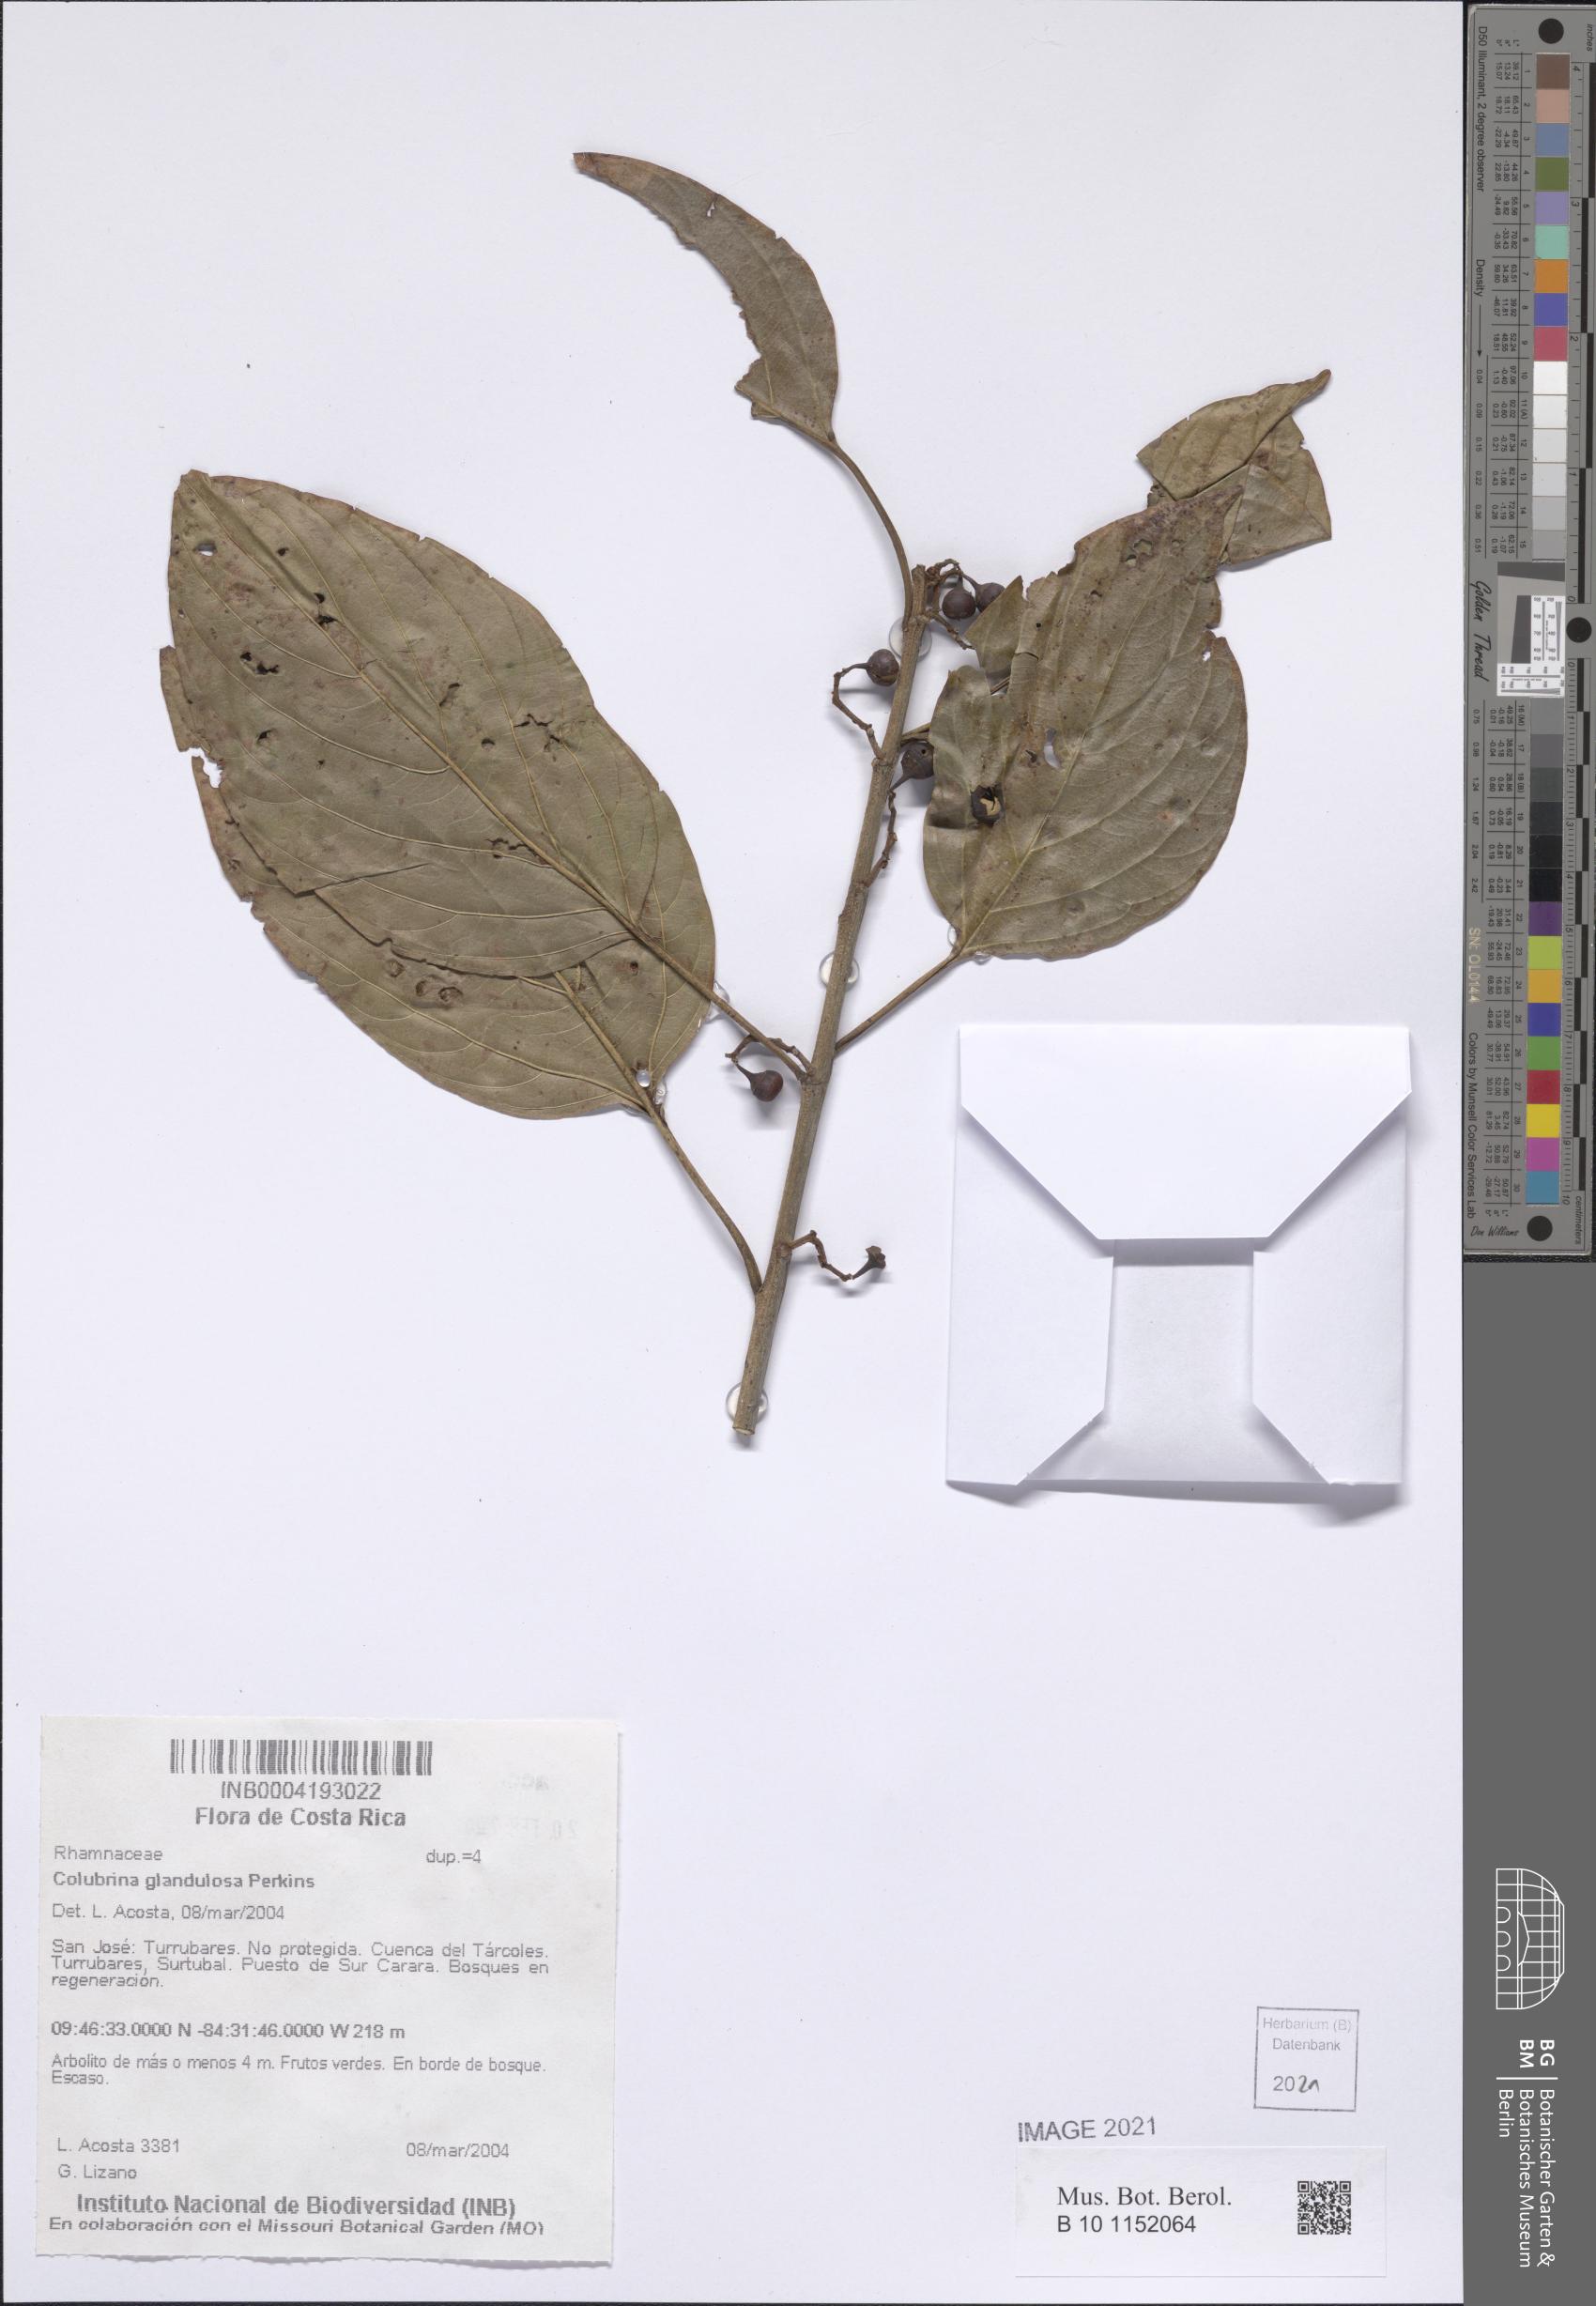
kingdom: Plantae
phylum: Tracheophyta
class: Magnoliopsida
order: Rosales
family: Rhamnaceae
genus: Colubrina
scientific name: Colubrina glandulosa
